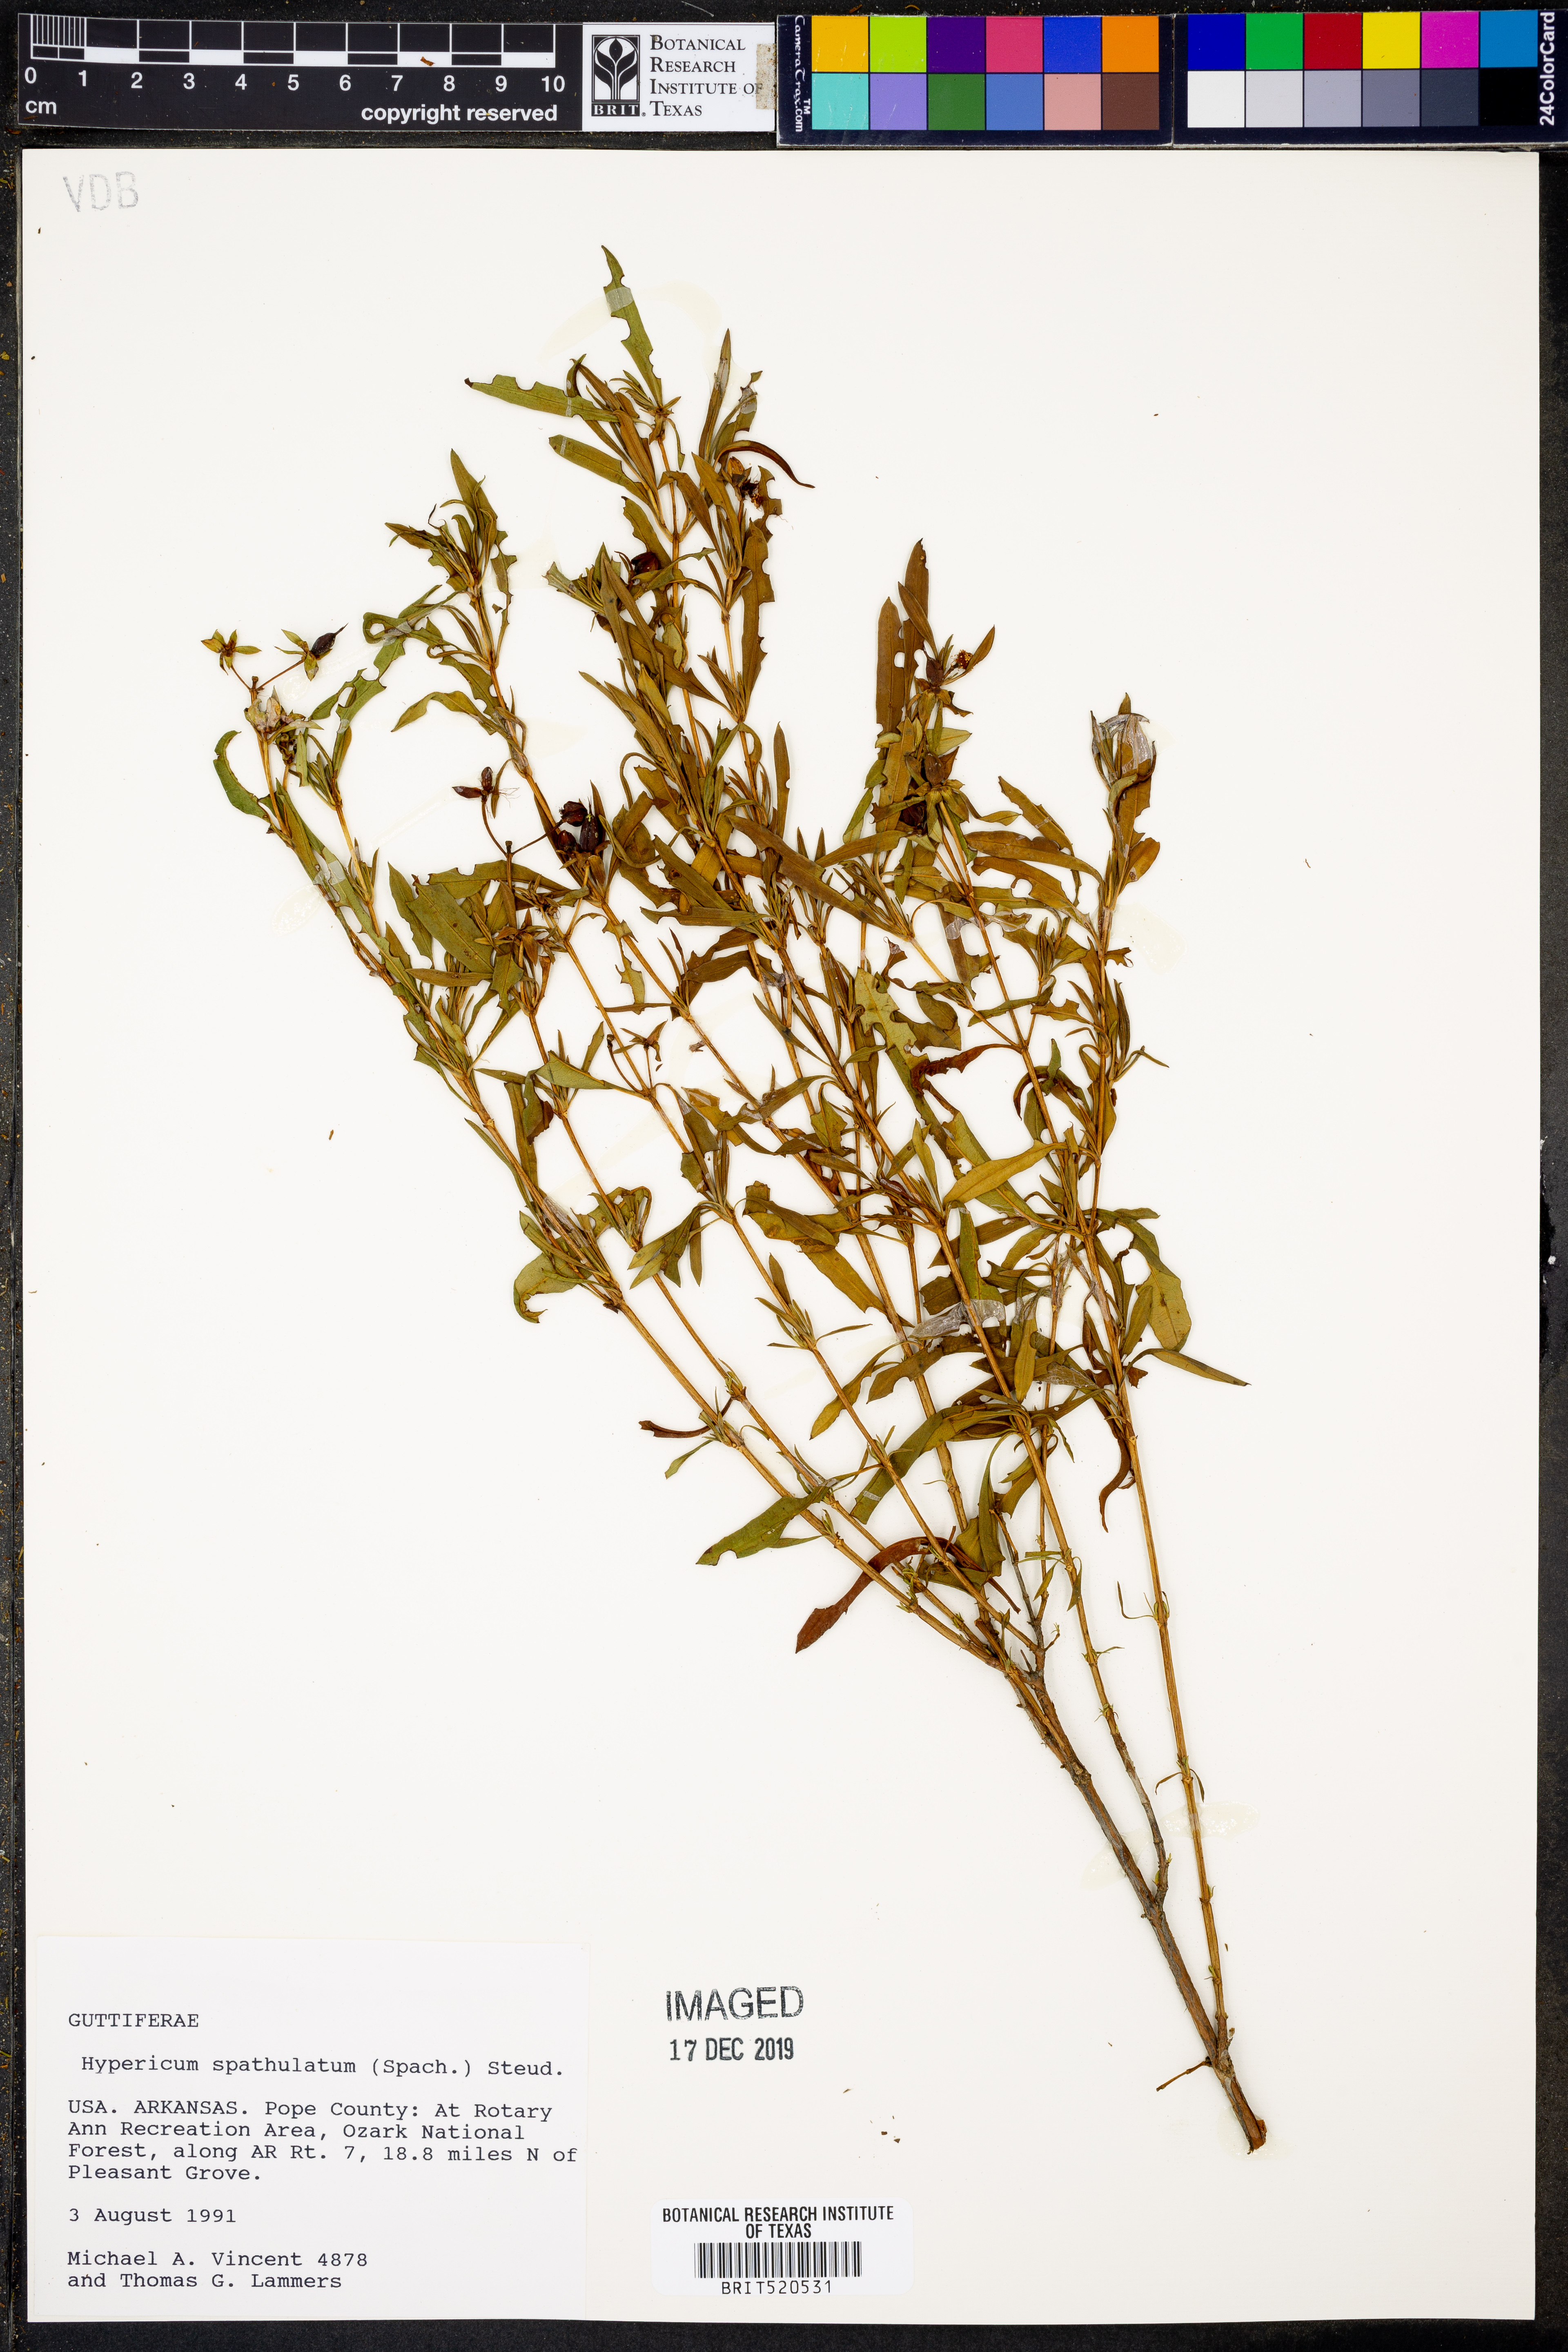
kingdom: Plantae
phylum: Tracheophyta
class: Magnoliopsida
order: Malpighiales
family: Hypericaceae
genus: Hypericum
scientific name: Hypericum
